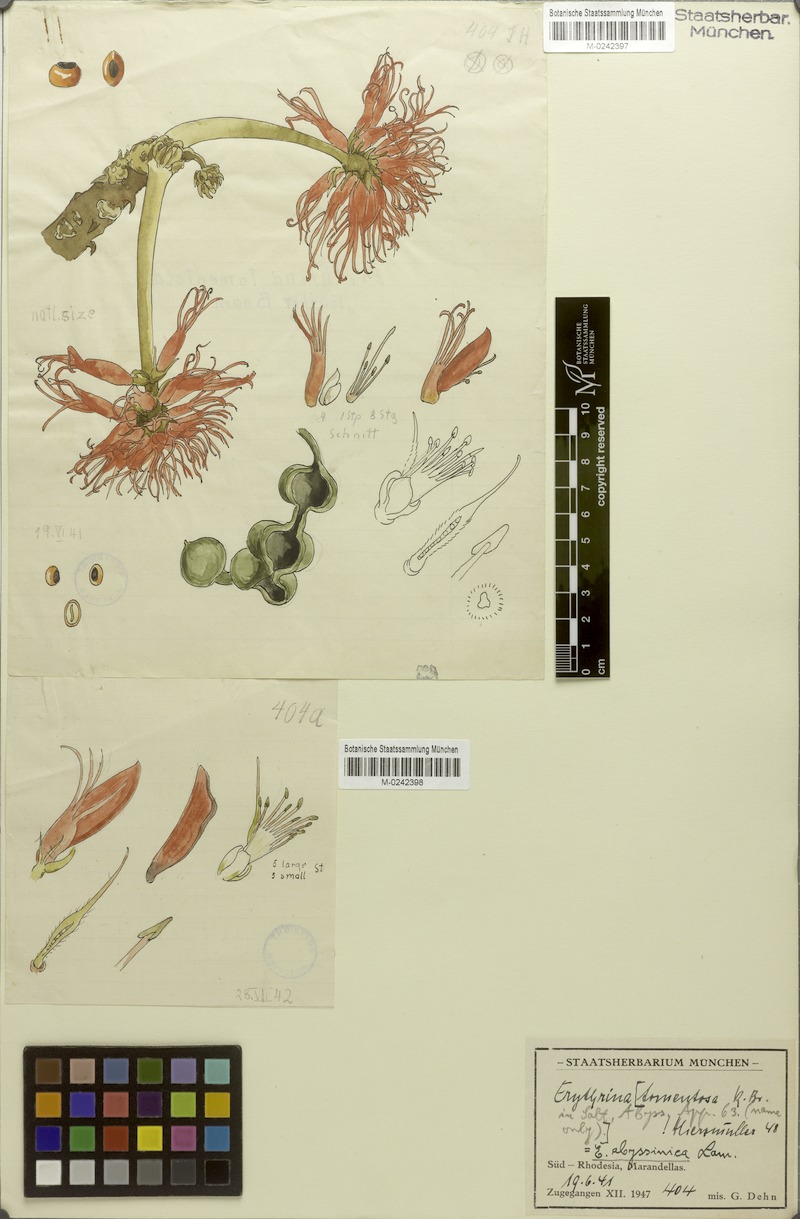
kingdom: Plantae
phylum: Tracheophyta
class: Magnoliopsida
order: Fabales
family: Fabaceae
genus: Erythrina
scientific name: Erythrina abyssinica
